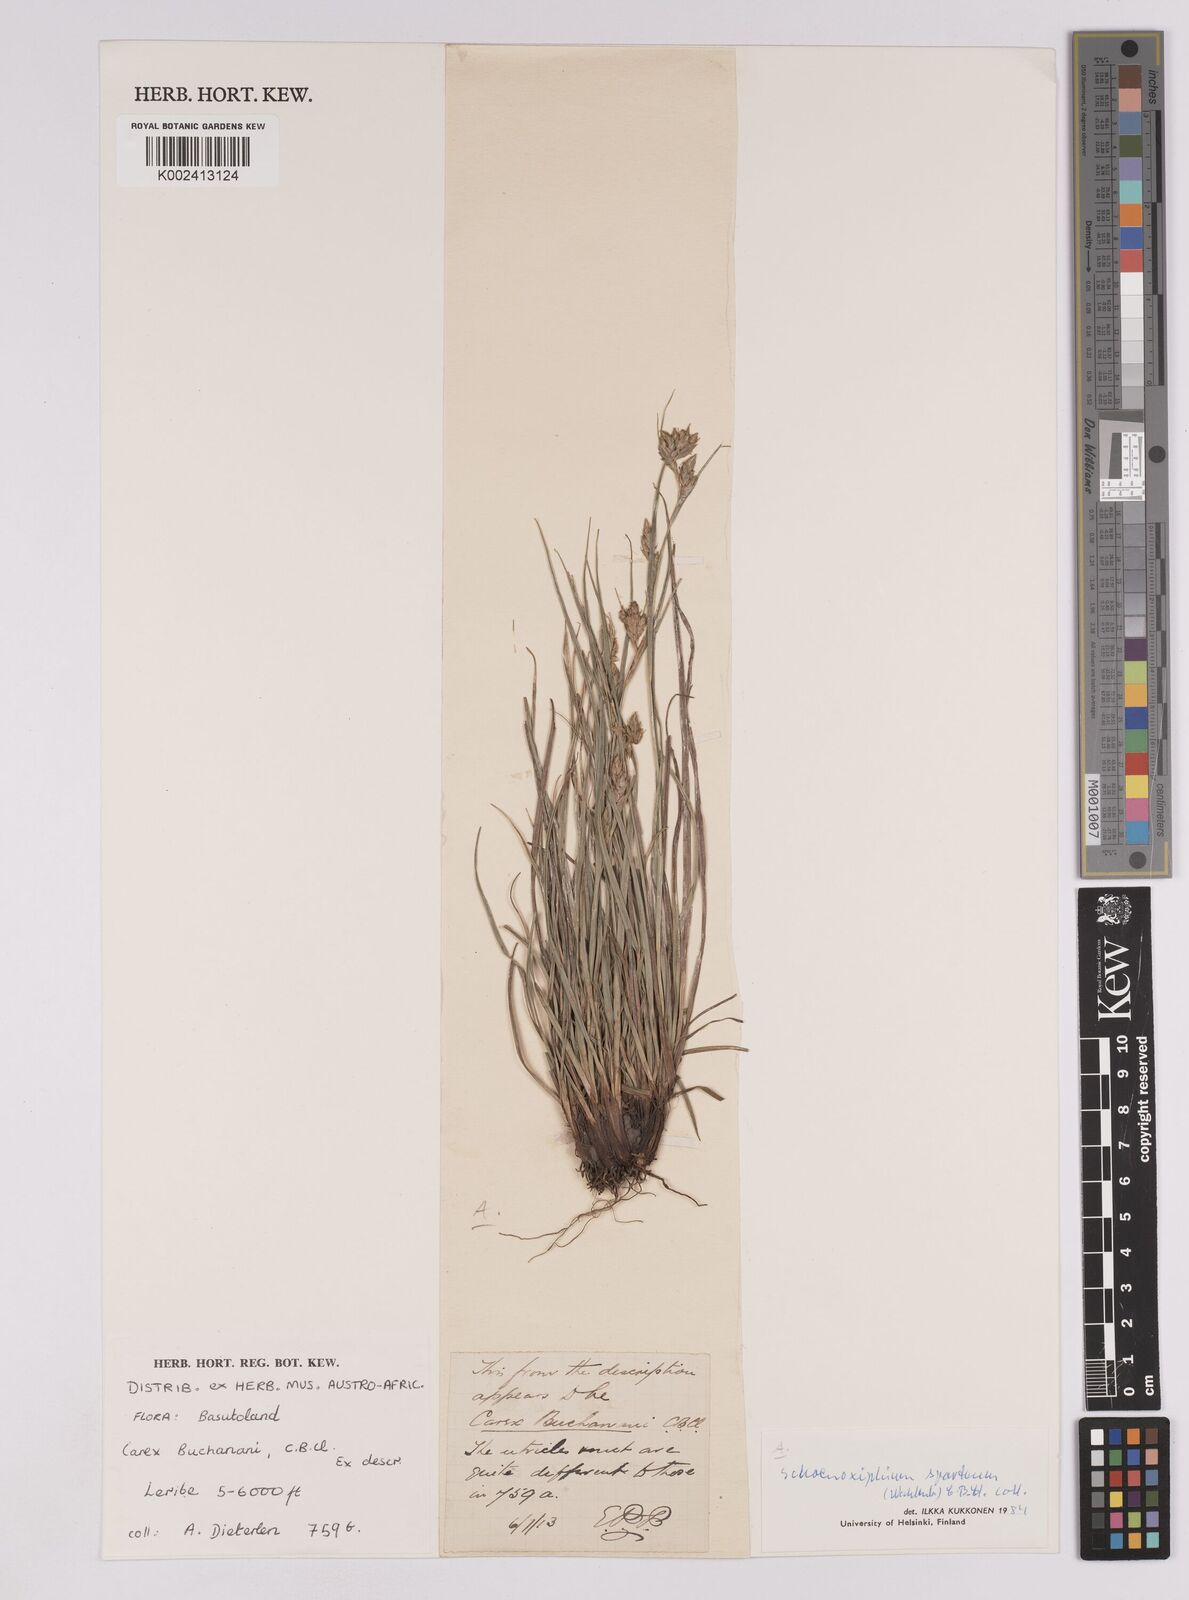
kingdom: Plantae
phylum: Tracheophyta
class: Liliopsida
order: Poales
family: Cyperaceae
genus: Carex
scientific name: Carex spartea
